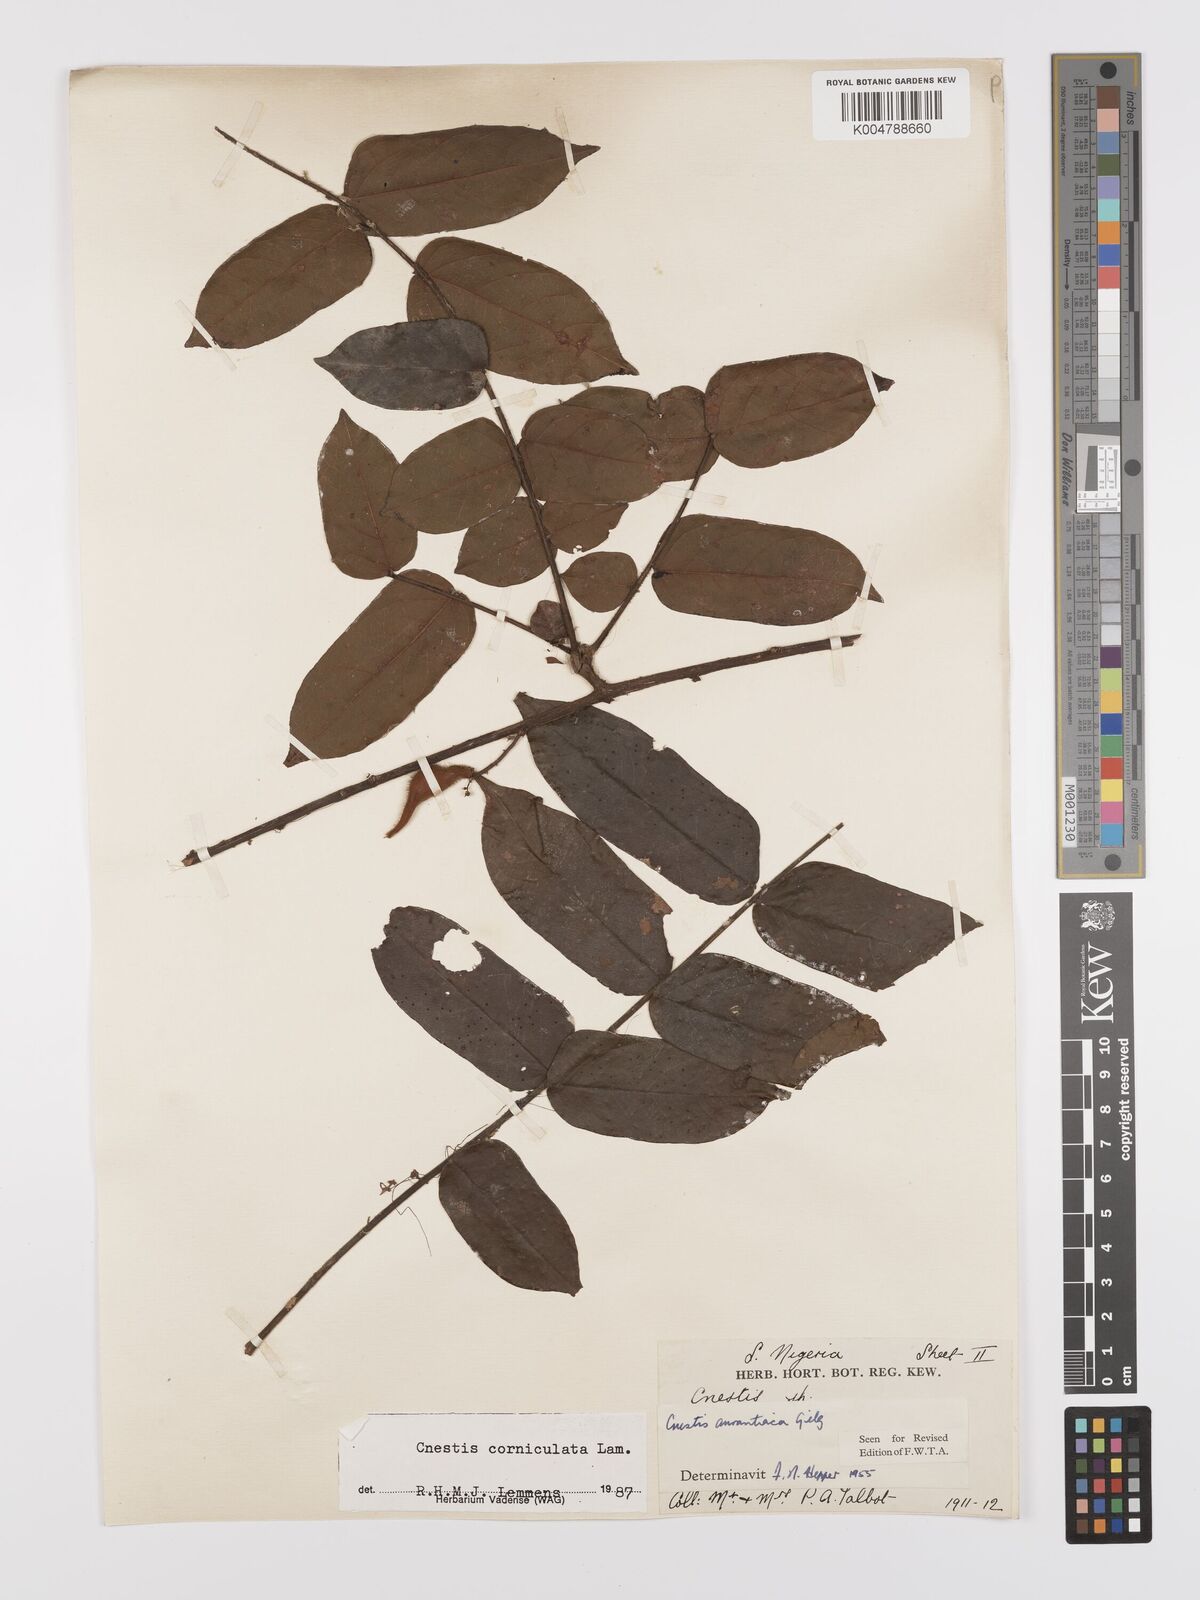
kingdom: Plantae
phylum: Tracheophyta
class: Magnoliopsida
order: Oxalidales
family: Connaraceae
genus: Cnestis
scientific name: Cnestis corniculata
